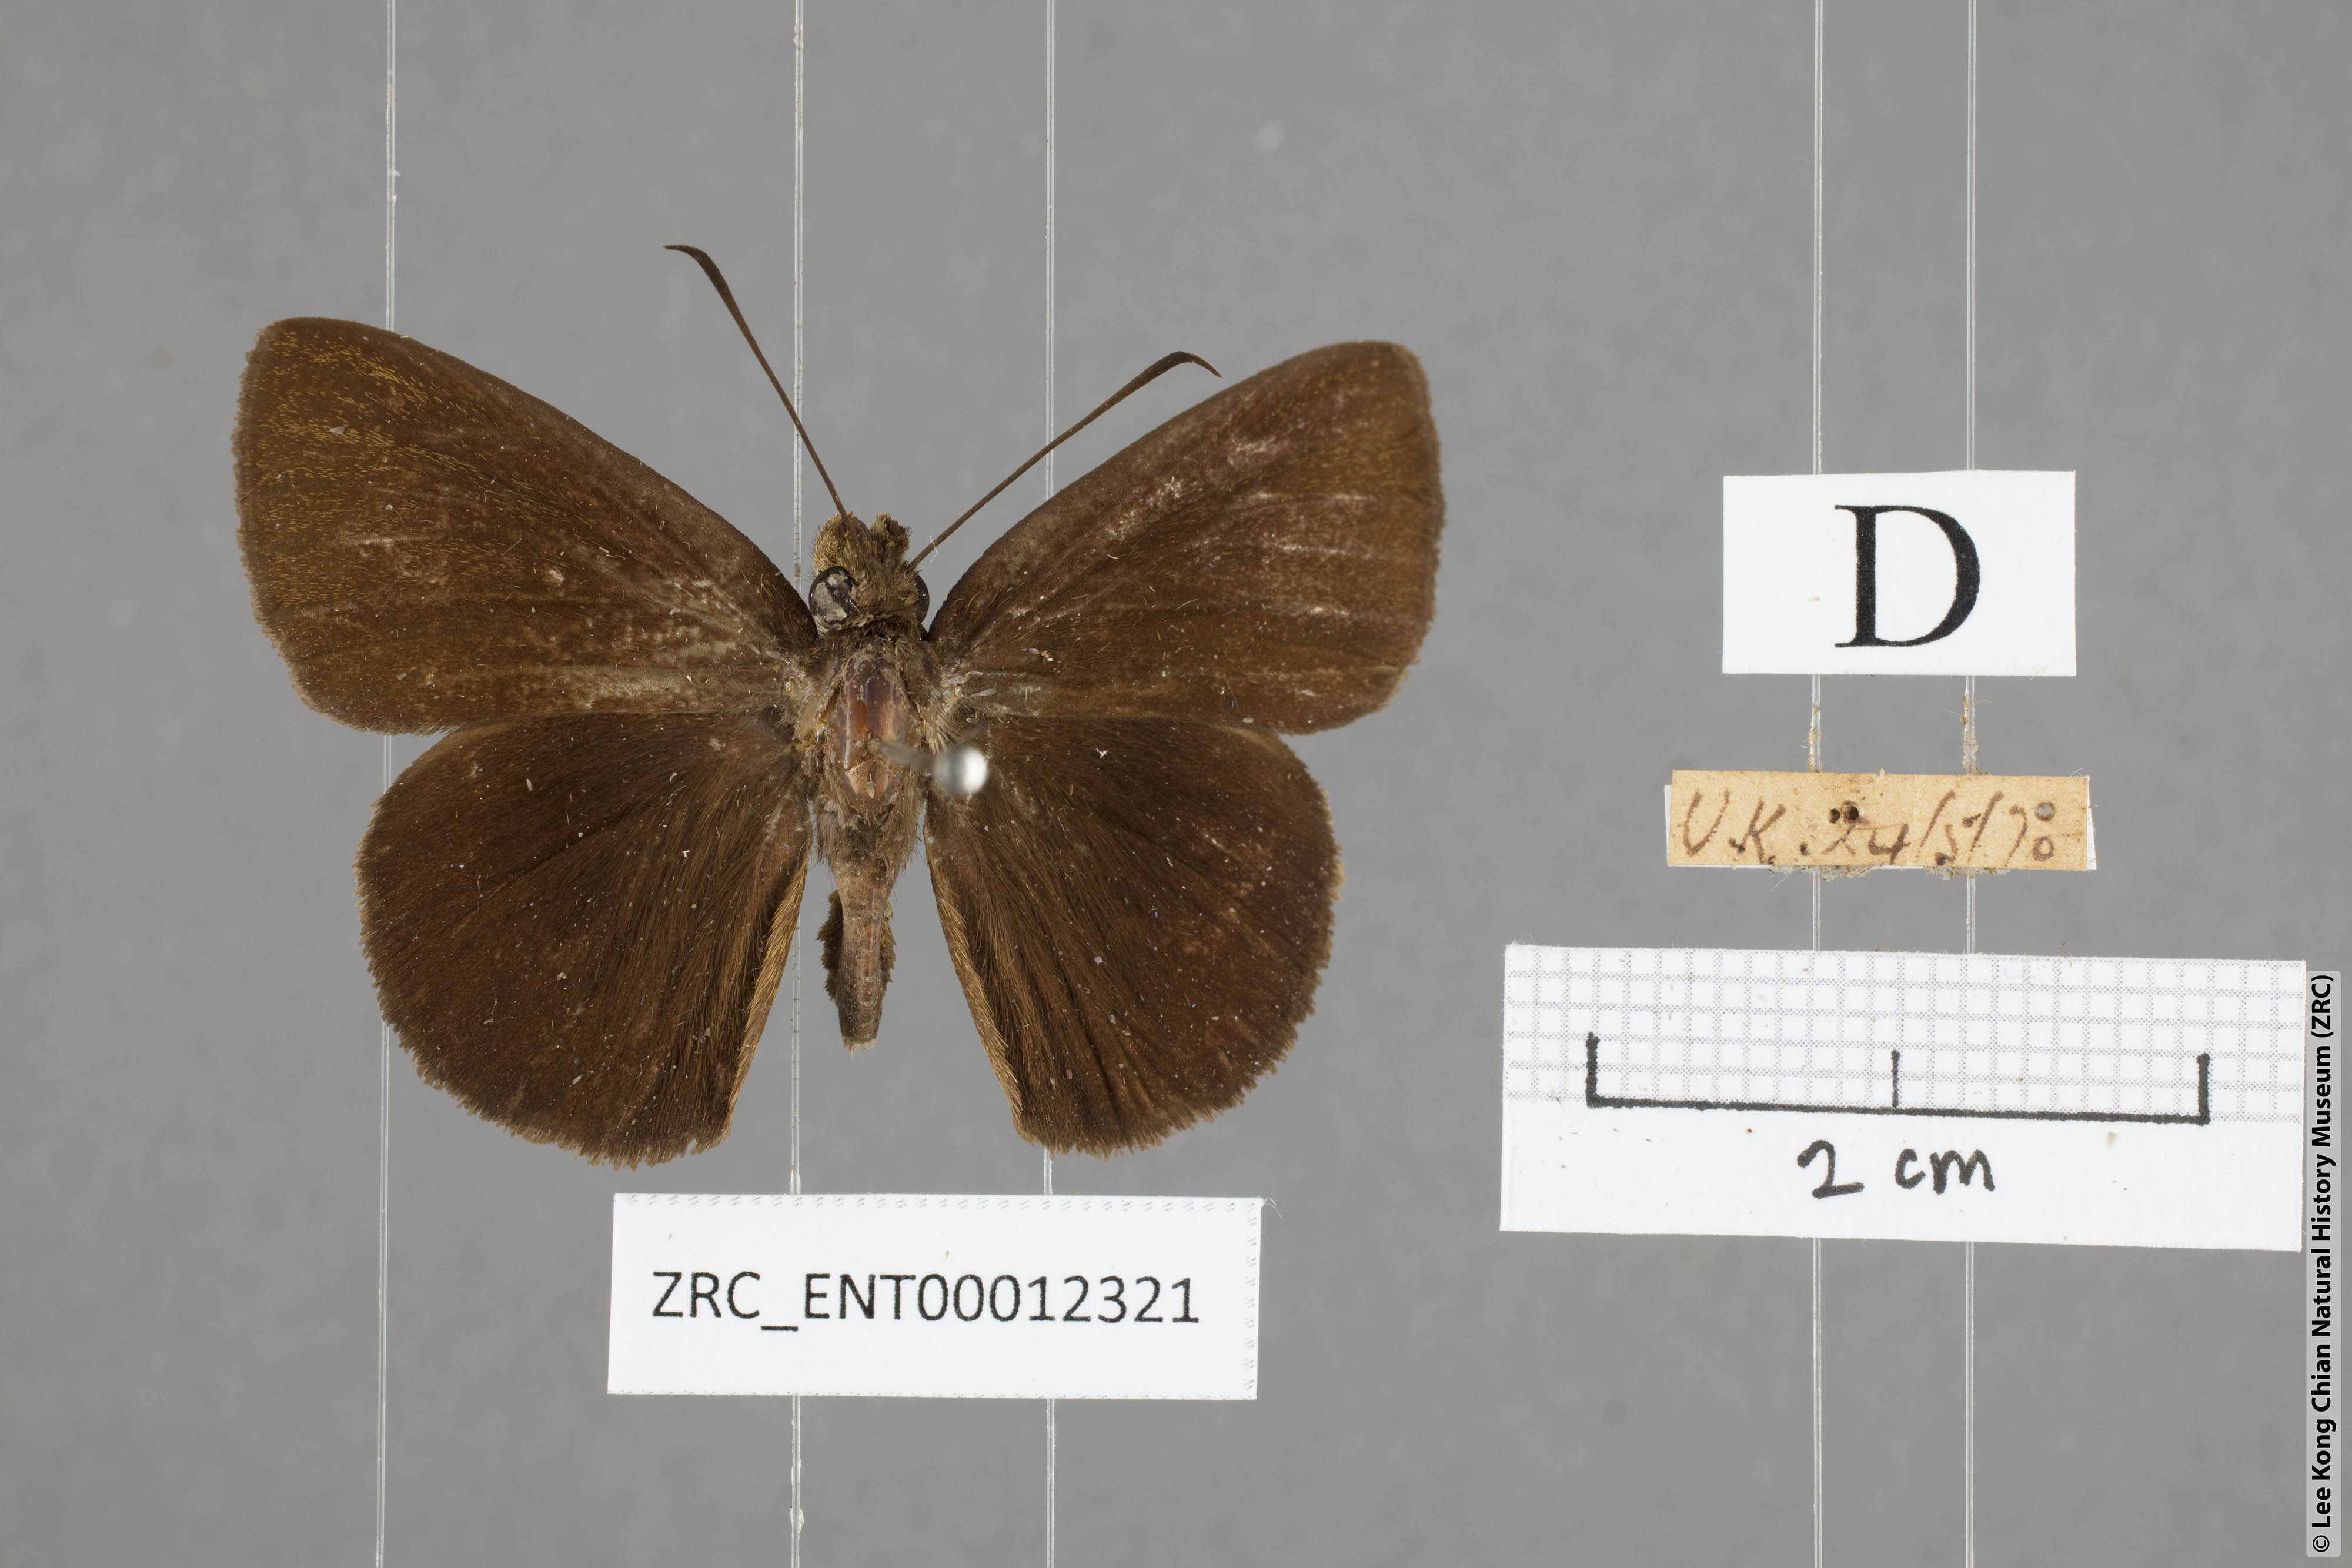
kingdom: Animalia
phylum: Arthropoda
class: Insecta
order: Lepidoptera
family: Hesperiidae
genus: Ancistroides
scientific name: Ancistroides nigrita
